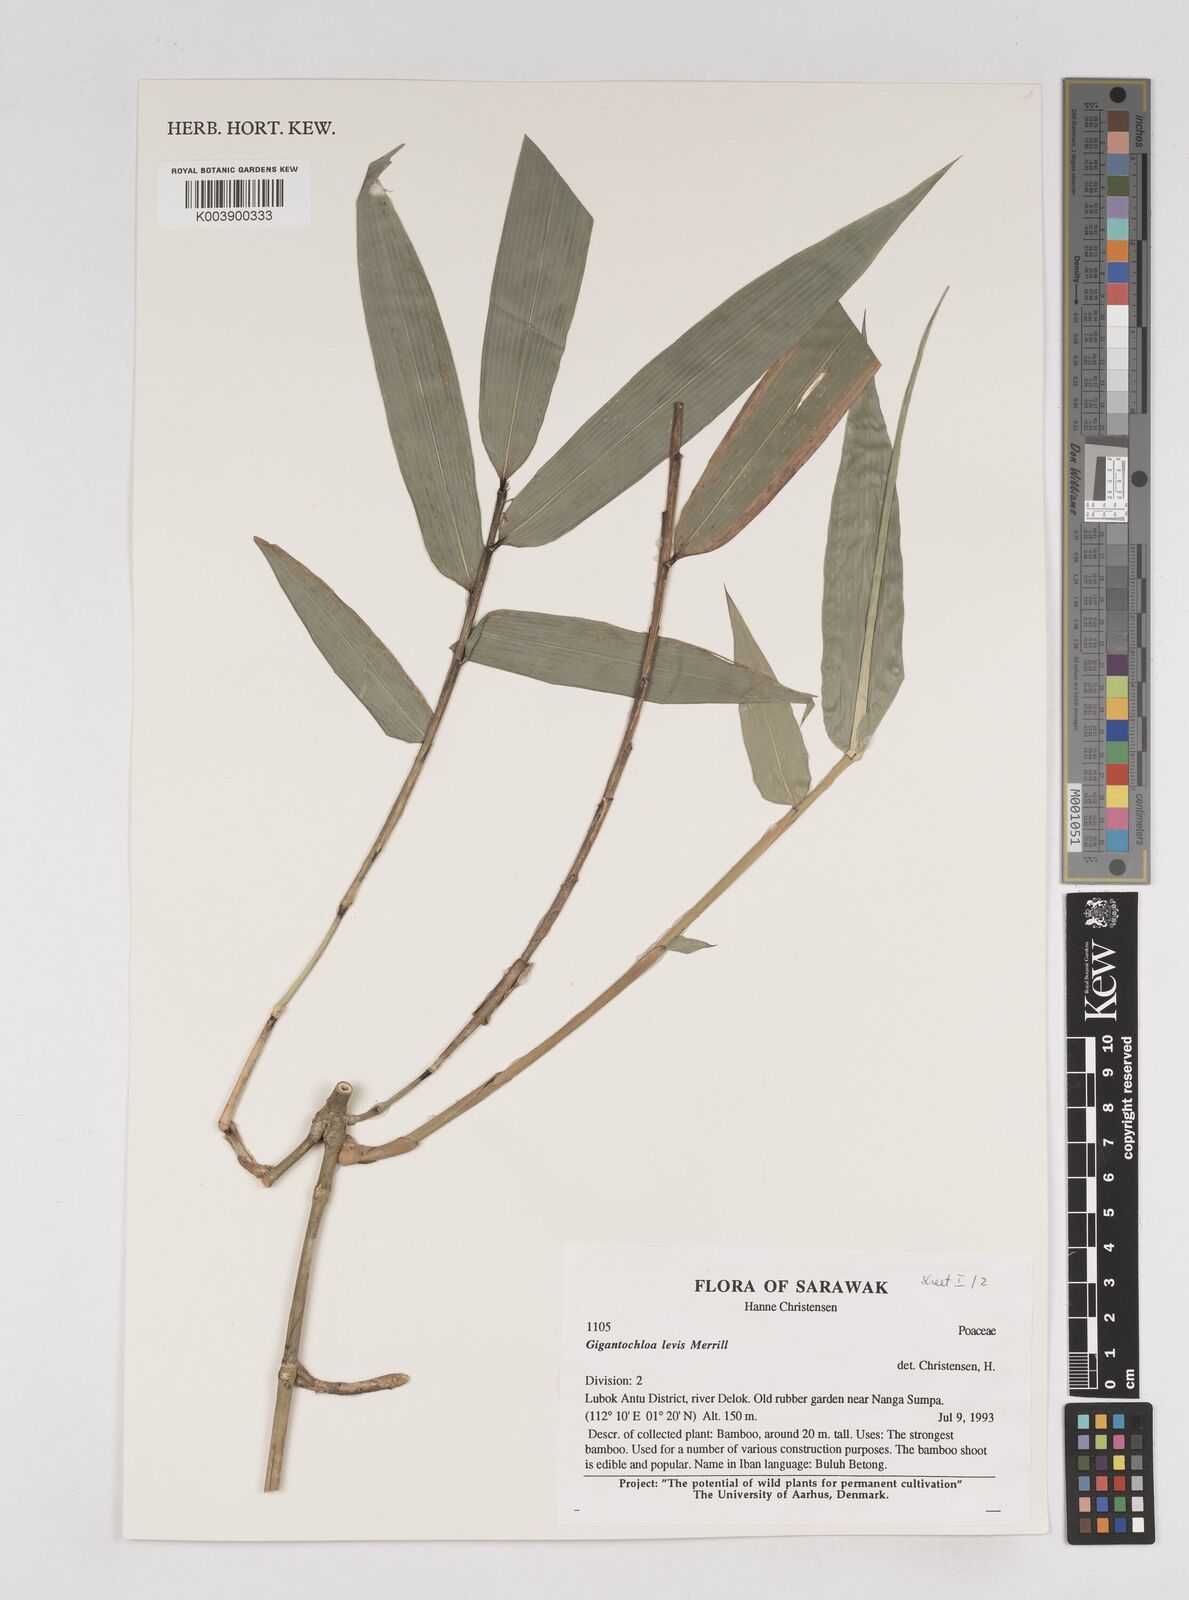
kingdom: Plantae
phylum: Tracheophyta
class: Liliopsida
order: Poales
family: Poaceae
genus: Gigantochloa
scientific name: Gigantochloa levis
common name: Smooth-shoot gigantochloa
